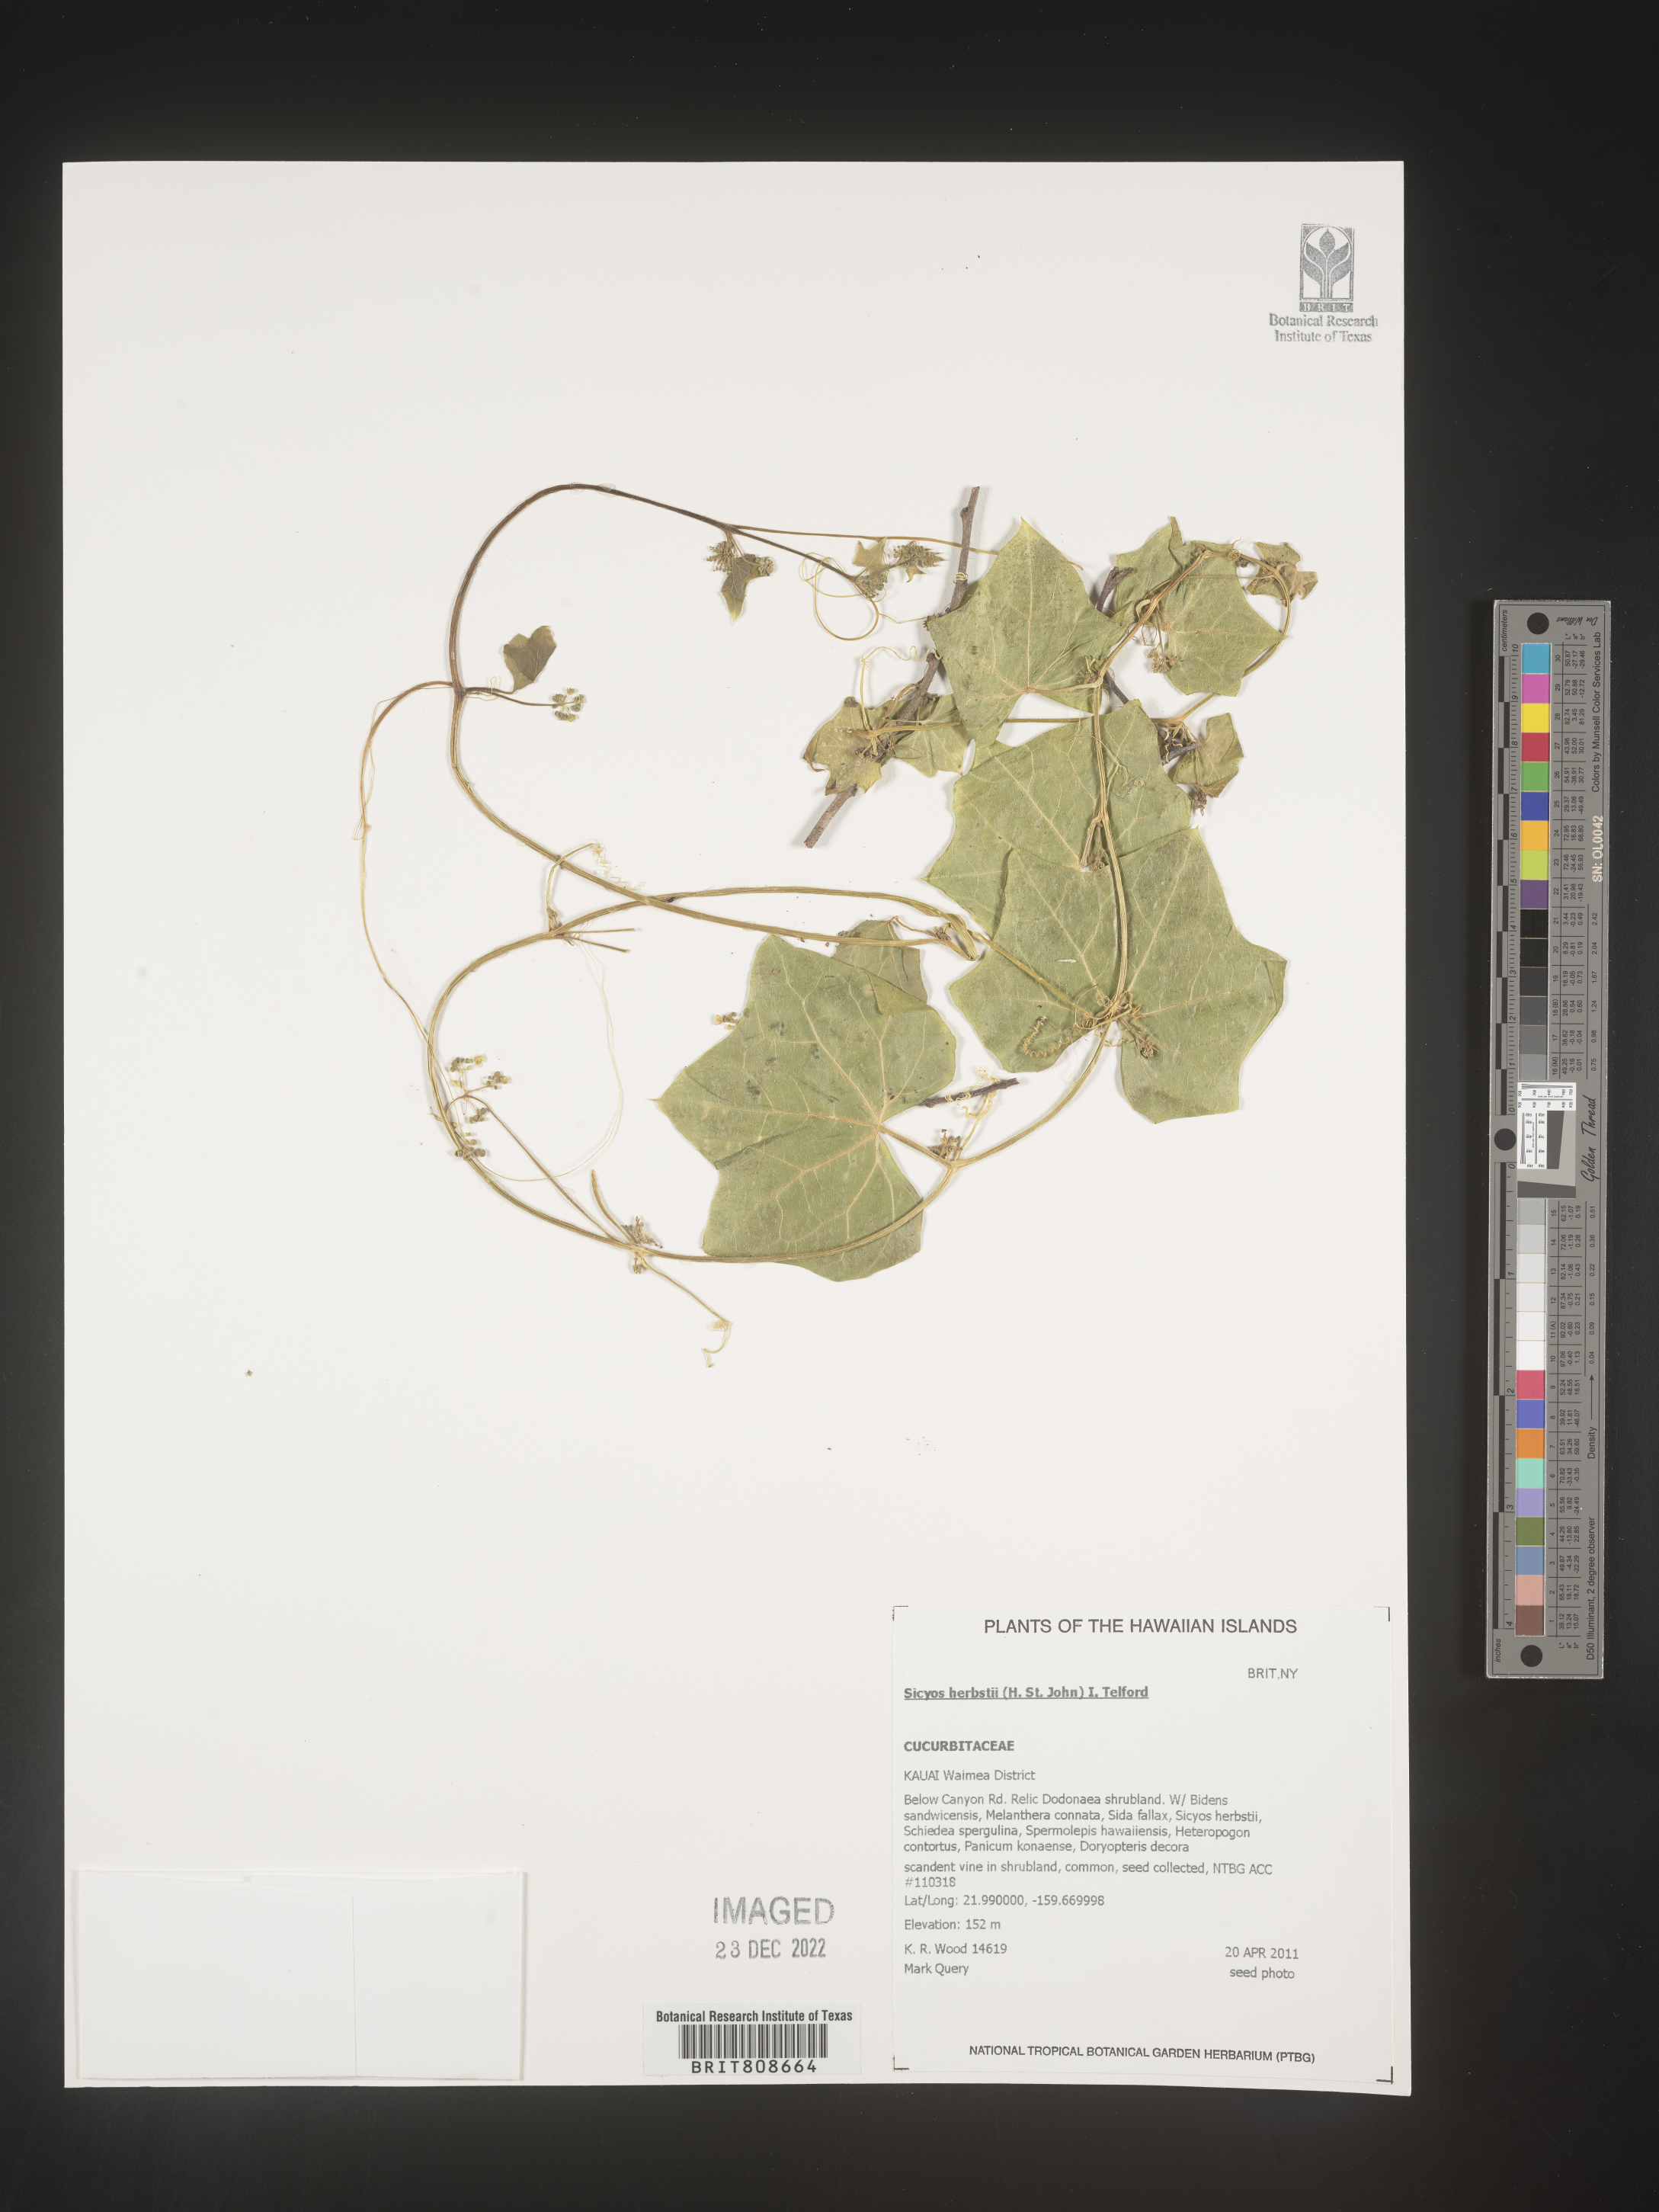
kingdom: Plantae
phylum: Tracheophyta
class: Magnoliopsida
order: Cucurbitales
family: Cucurbitaceae
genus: Sicyos
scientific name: Sicyos
